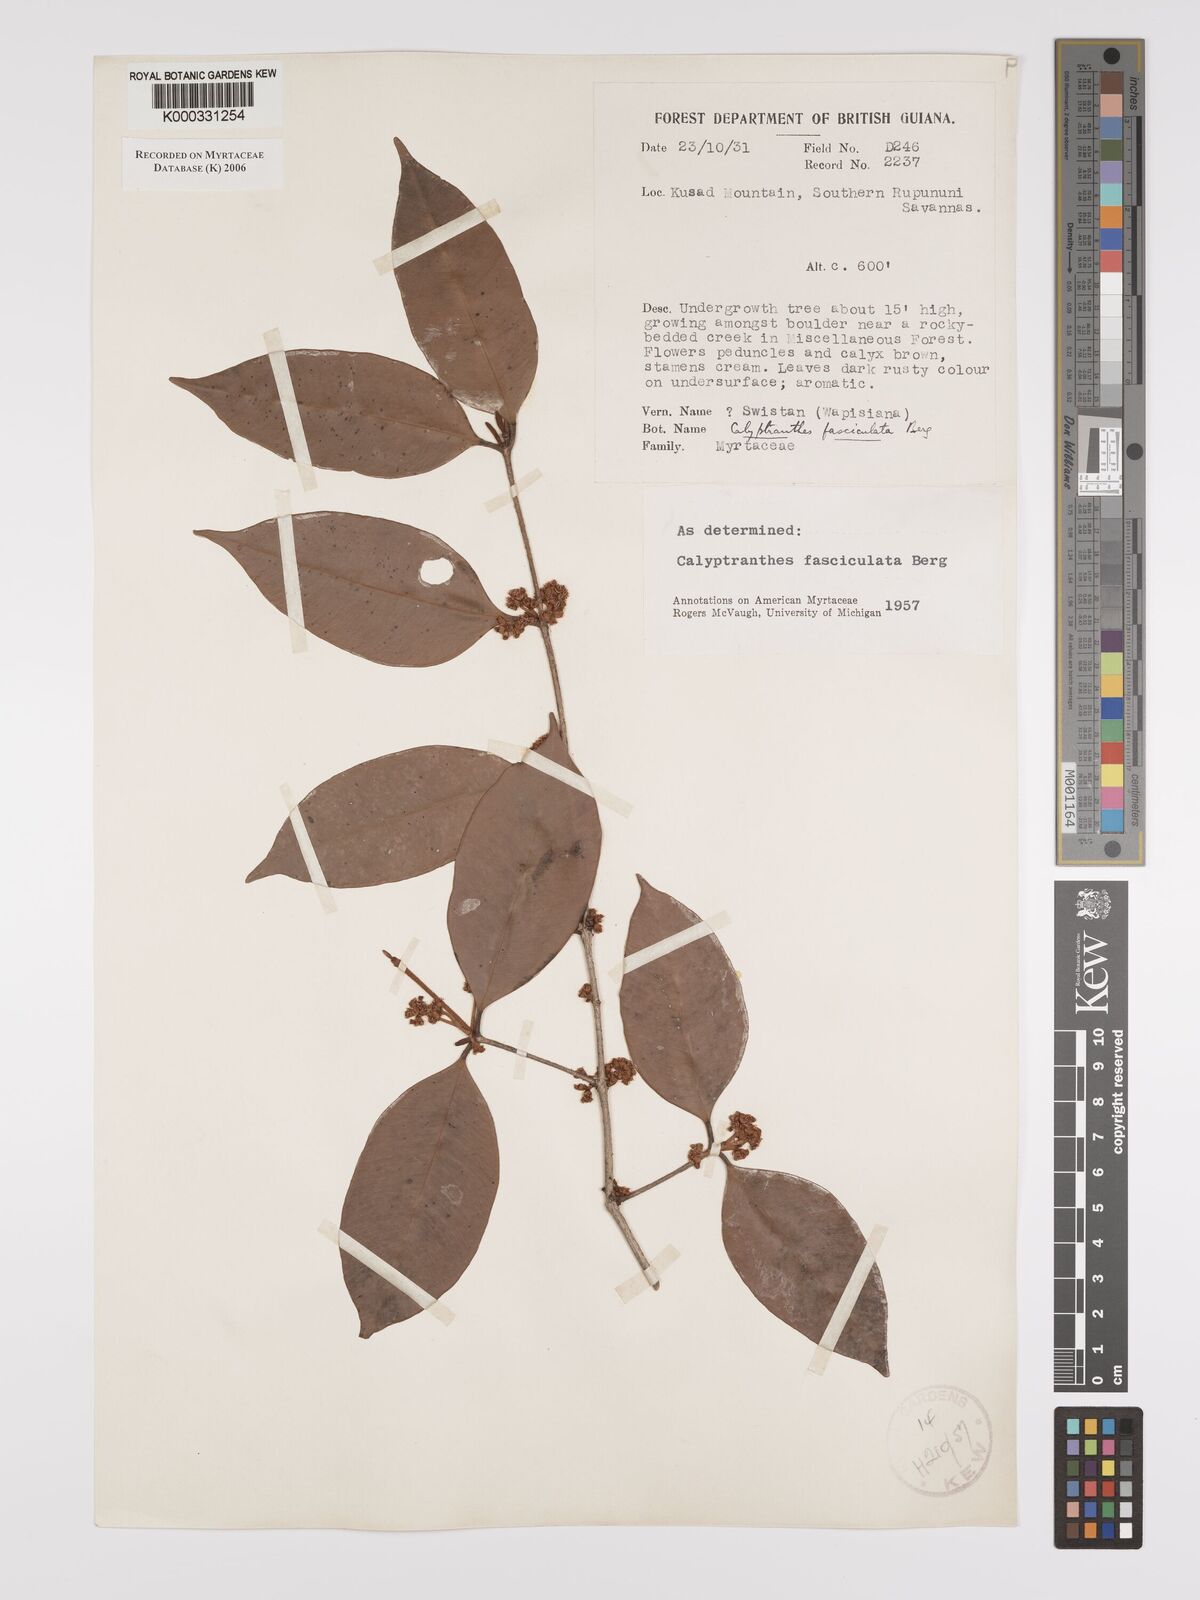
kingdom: Plantae
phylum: Tracheophyta
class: Magnoliopsida
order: Myrtales
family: Myrtaceae
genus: Myrcia
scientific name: Myrcia fasciculata
